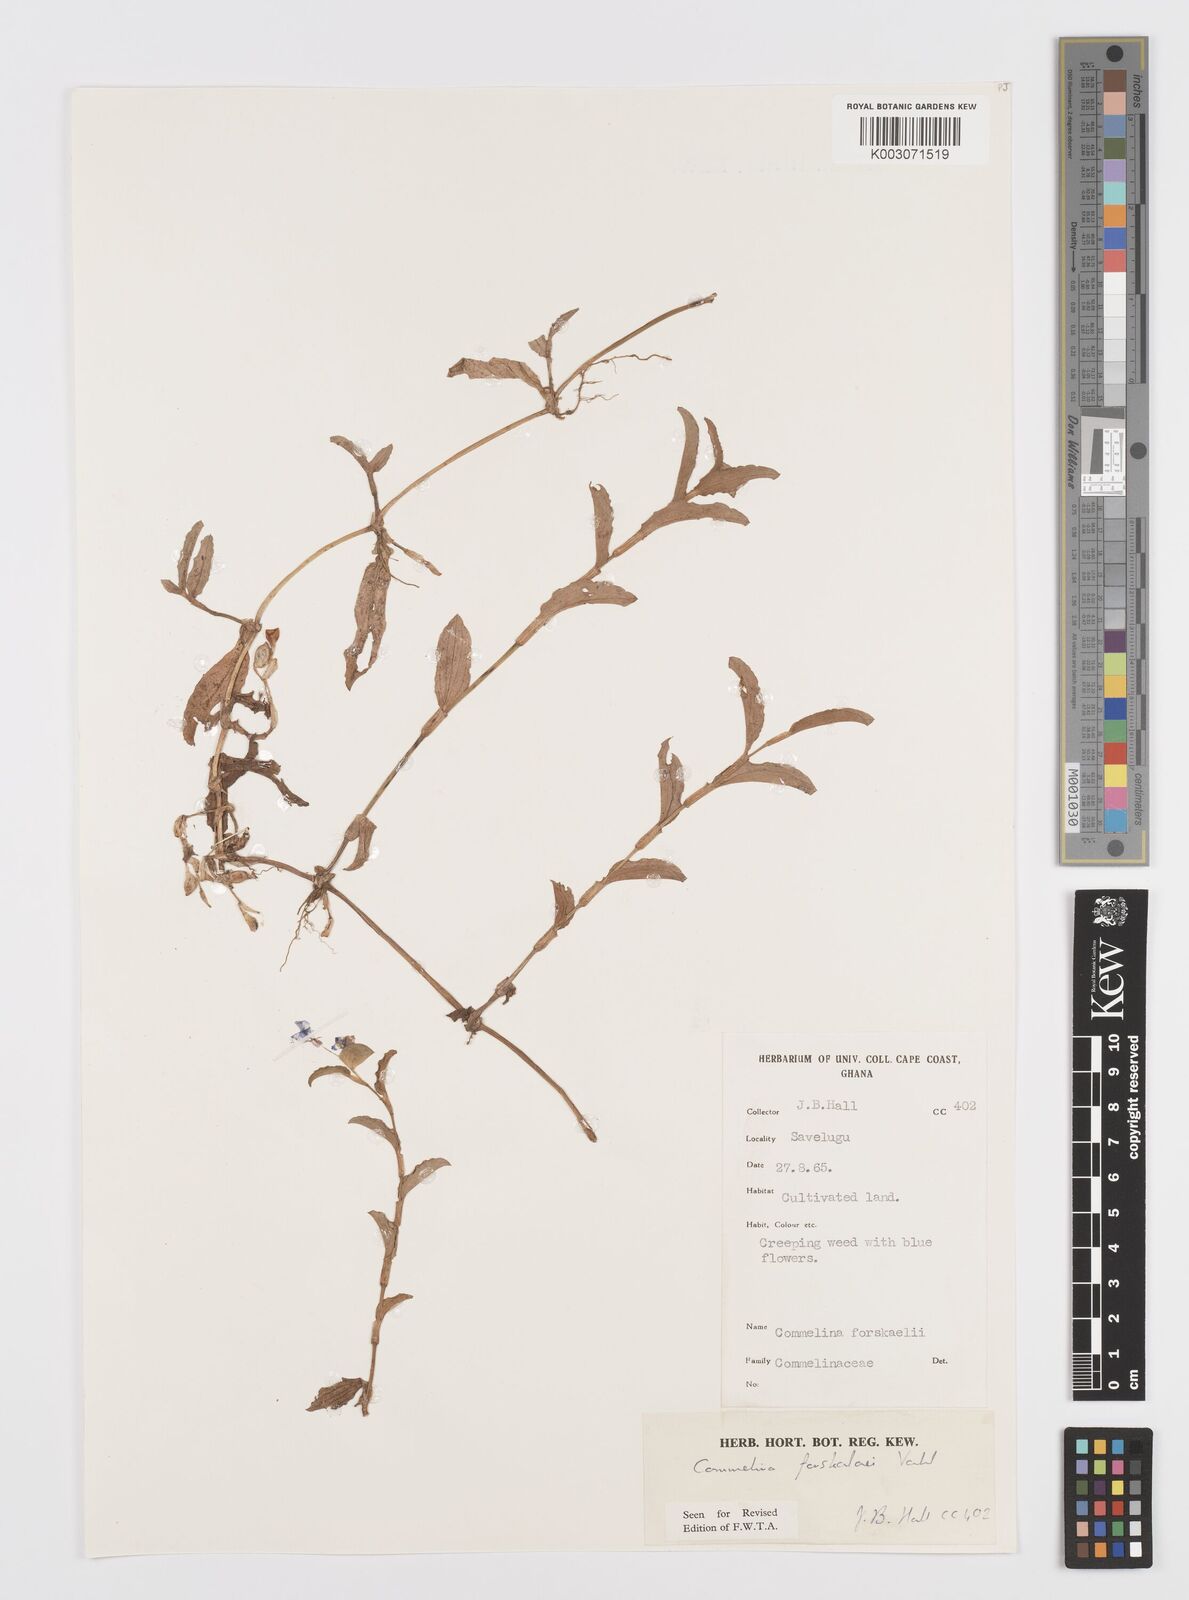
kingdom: Plantae
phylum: Tracheophyta
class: Liliopsida
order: Commelinales
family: Commelinaceae
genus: Commelina
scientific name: Commelina forskaolii
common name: Rat's ear
